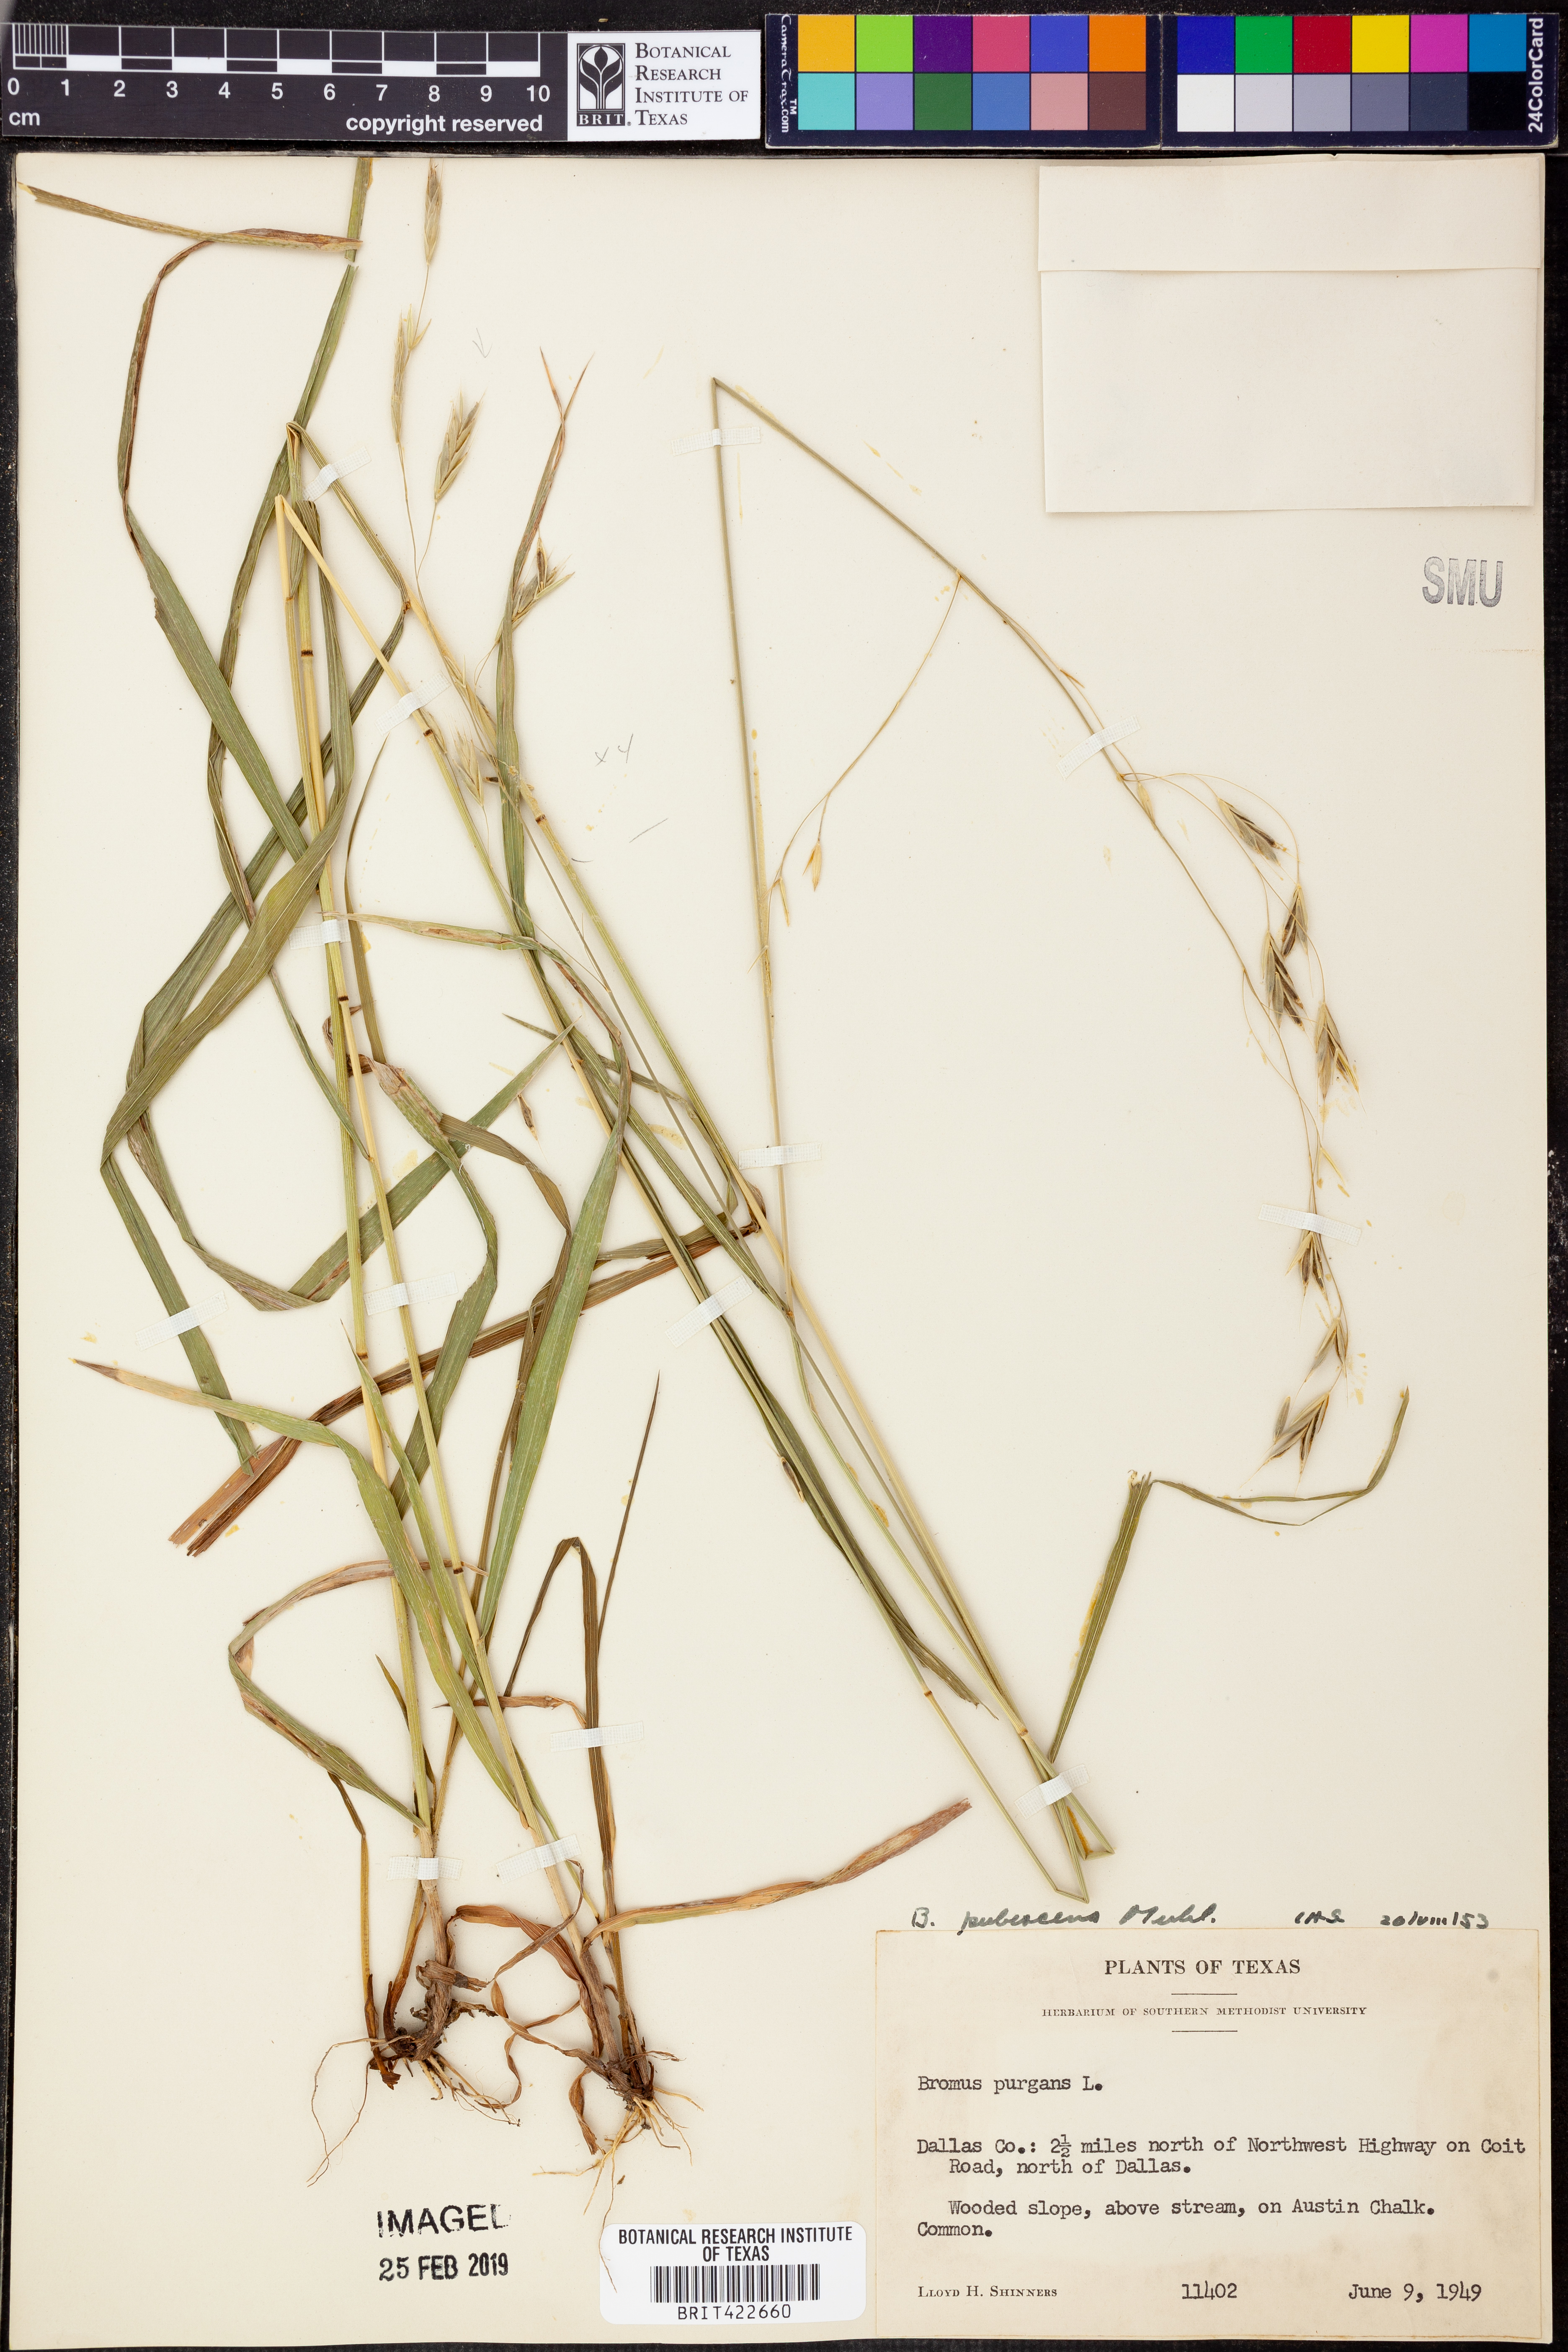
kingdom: Plantae
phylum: Tracheophyta
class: Liliopsida
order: Poales
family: Poaceae
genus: Bromus
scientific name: Bromus japonicus
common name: Japanese brome
